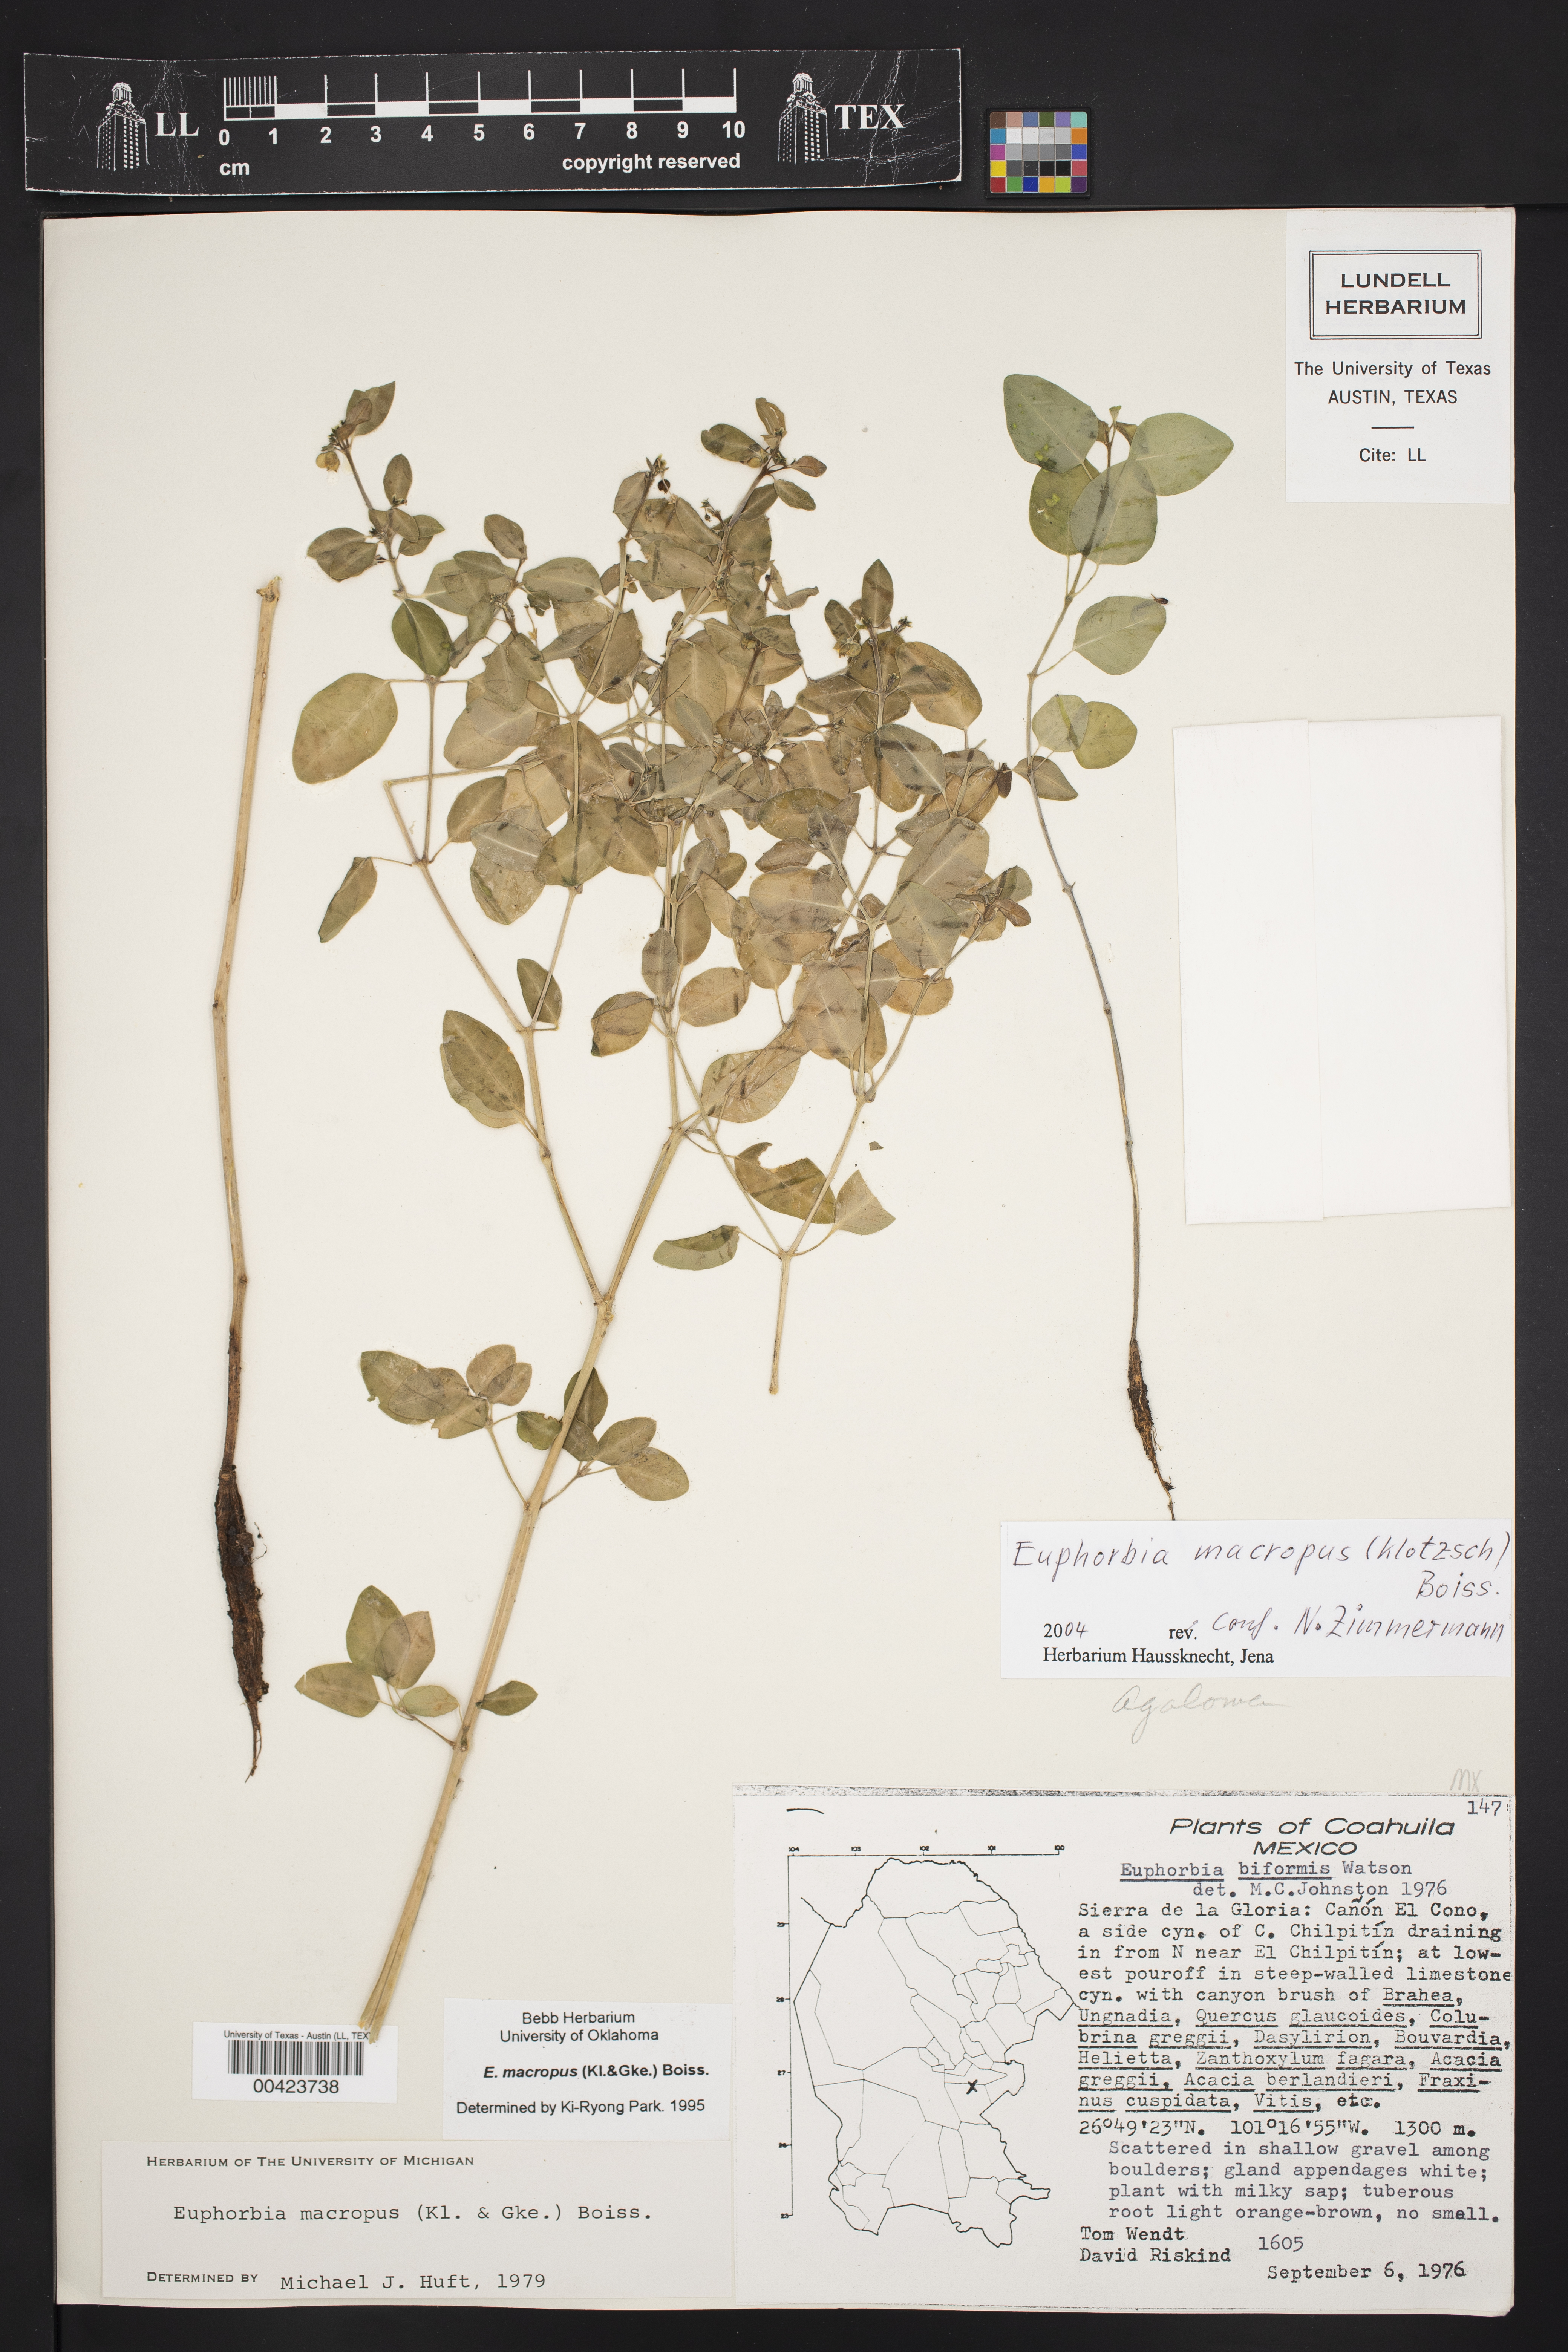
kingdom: Plantae
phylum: Tracheophyta
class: Magnoliopsida
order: Malpighiales
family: Euphorbiaceae
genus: Euphorbia
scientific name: Euphorbia macropus
